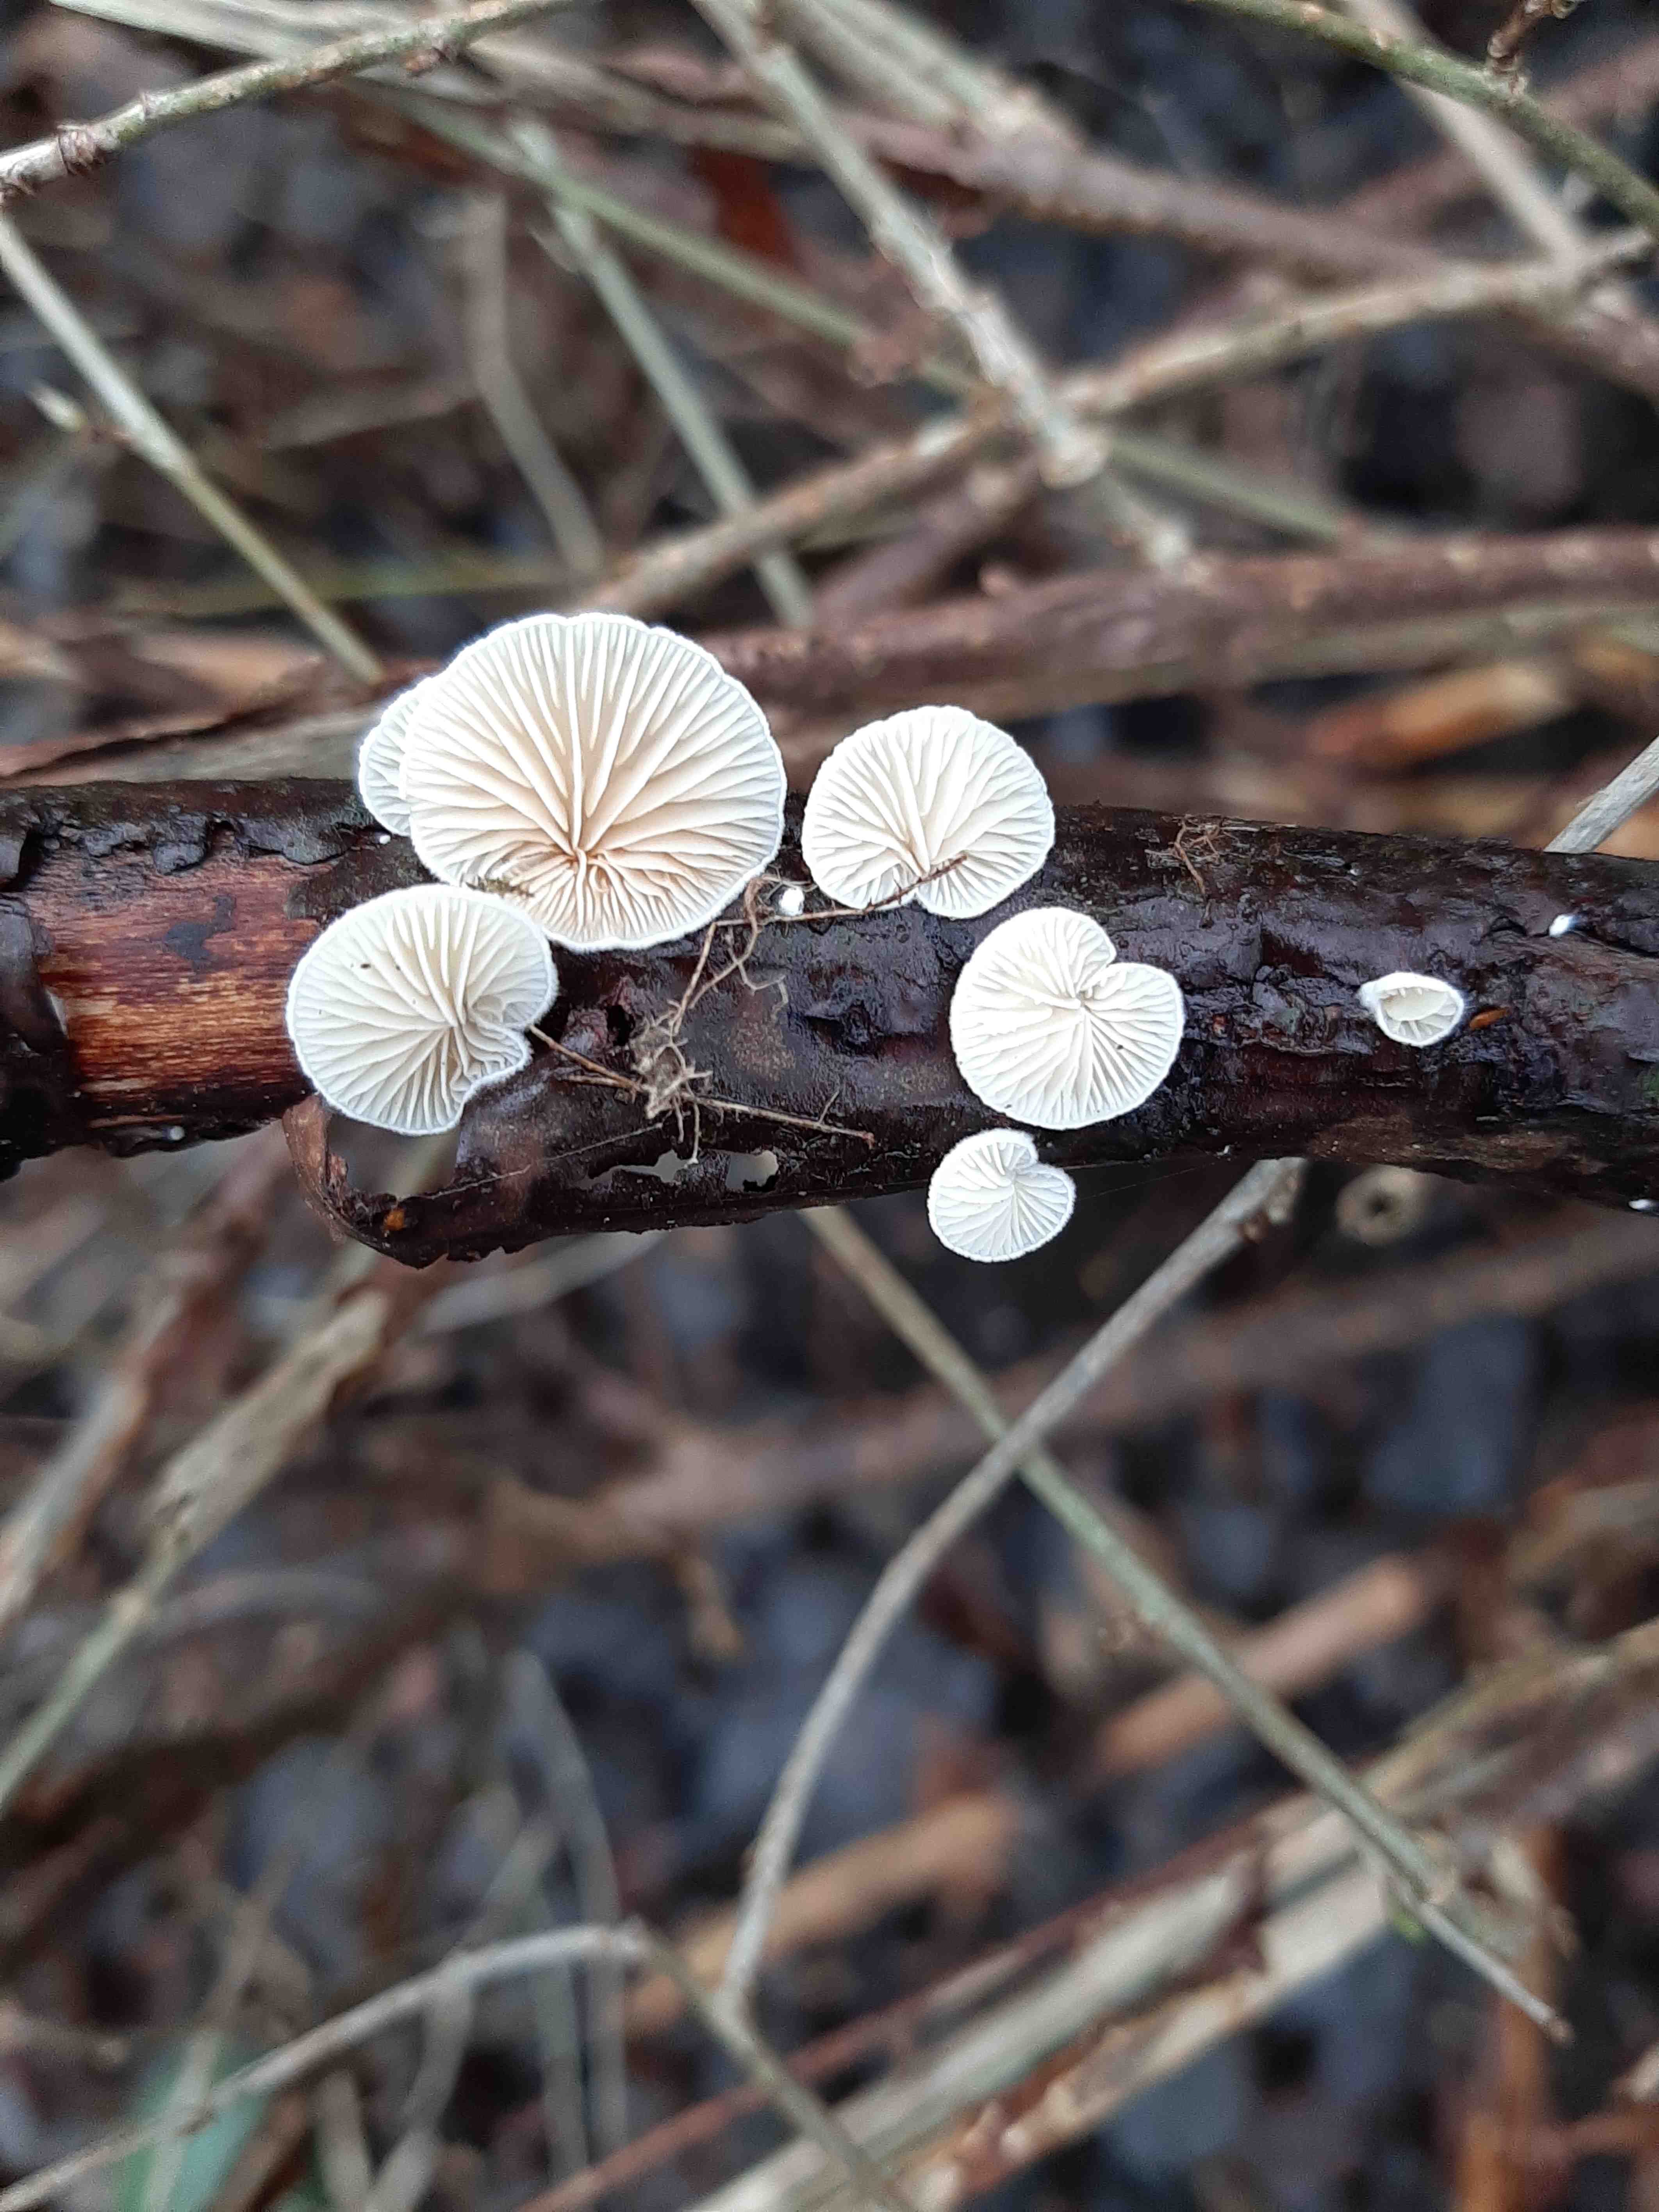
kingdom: Fungi
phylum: Basidiomycota
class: Agaricomycetes
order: Agaricales
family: Crepidotaceae
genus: Crepidotus
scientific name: Crepidotus
